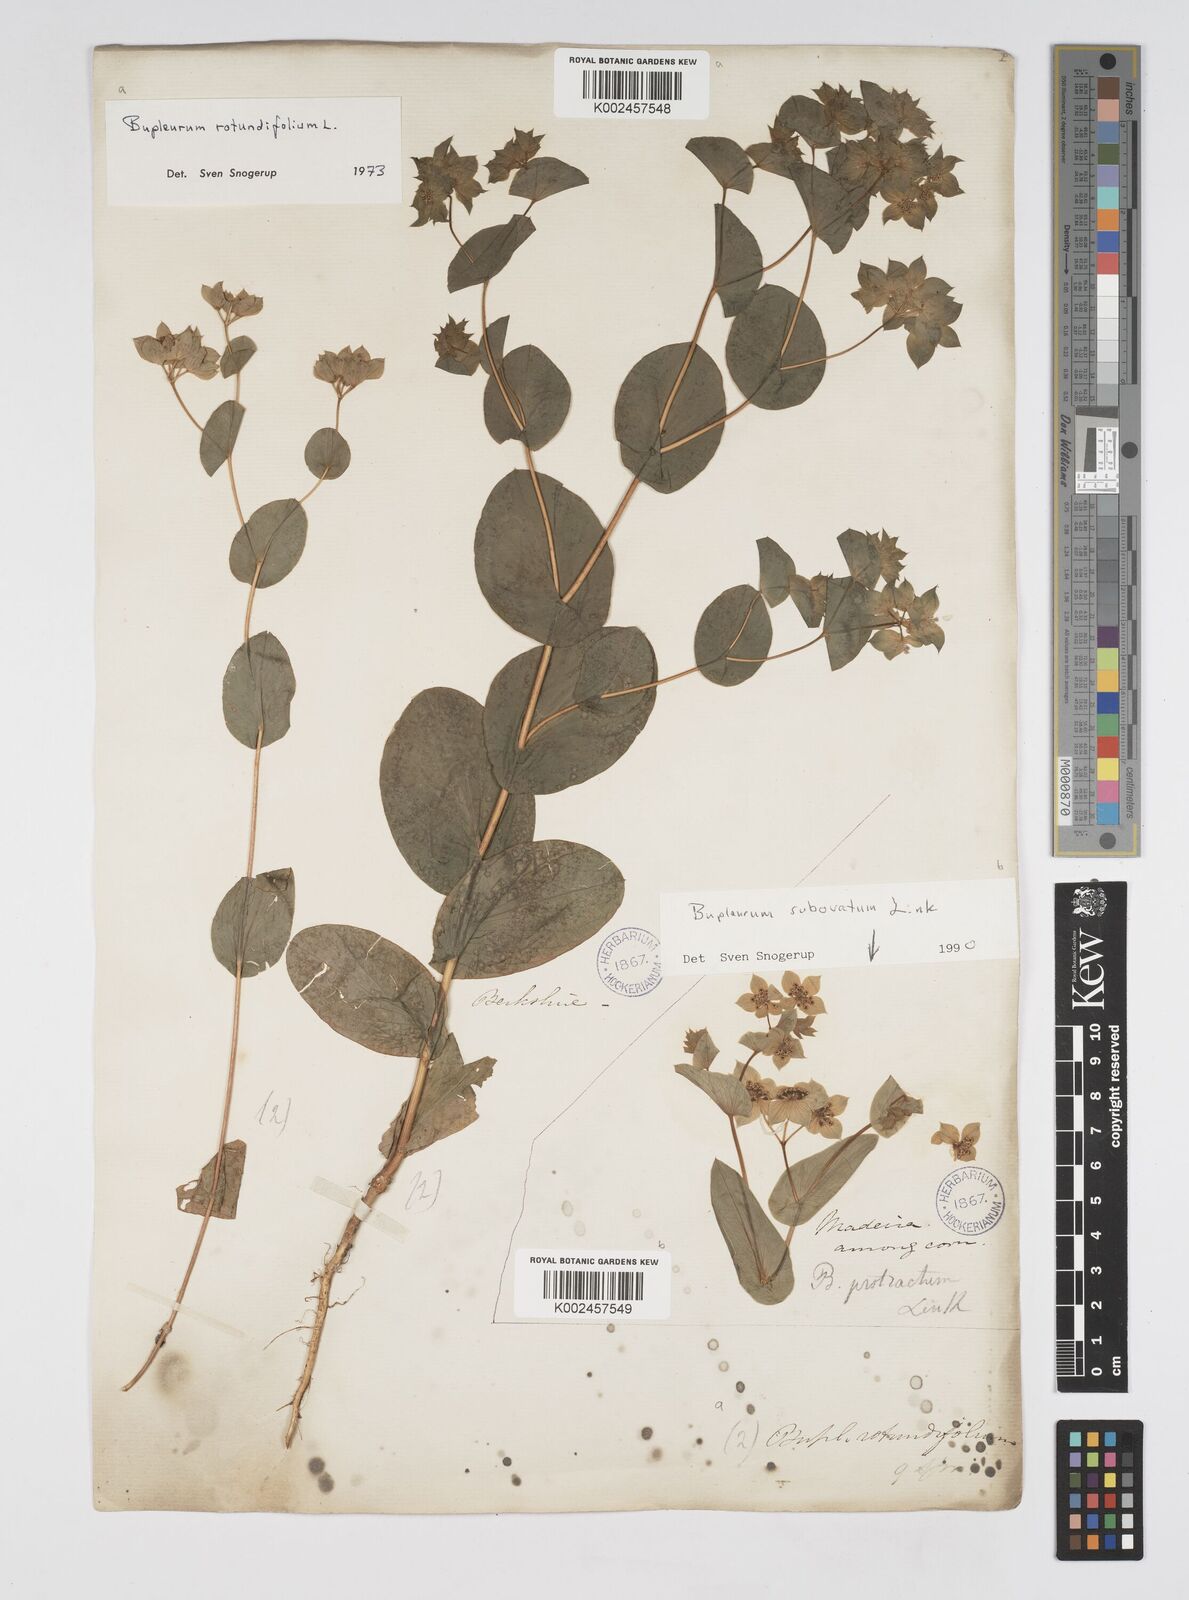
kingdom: Plantae
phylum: Tracheophyta
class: Magnoliopsida
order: Apiales
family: Apiaceae
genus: Bupleurum
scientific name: Bupleurum rotundifolium
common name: Thorow-wax
